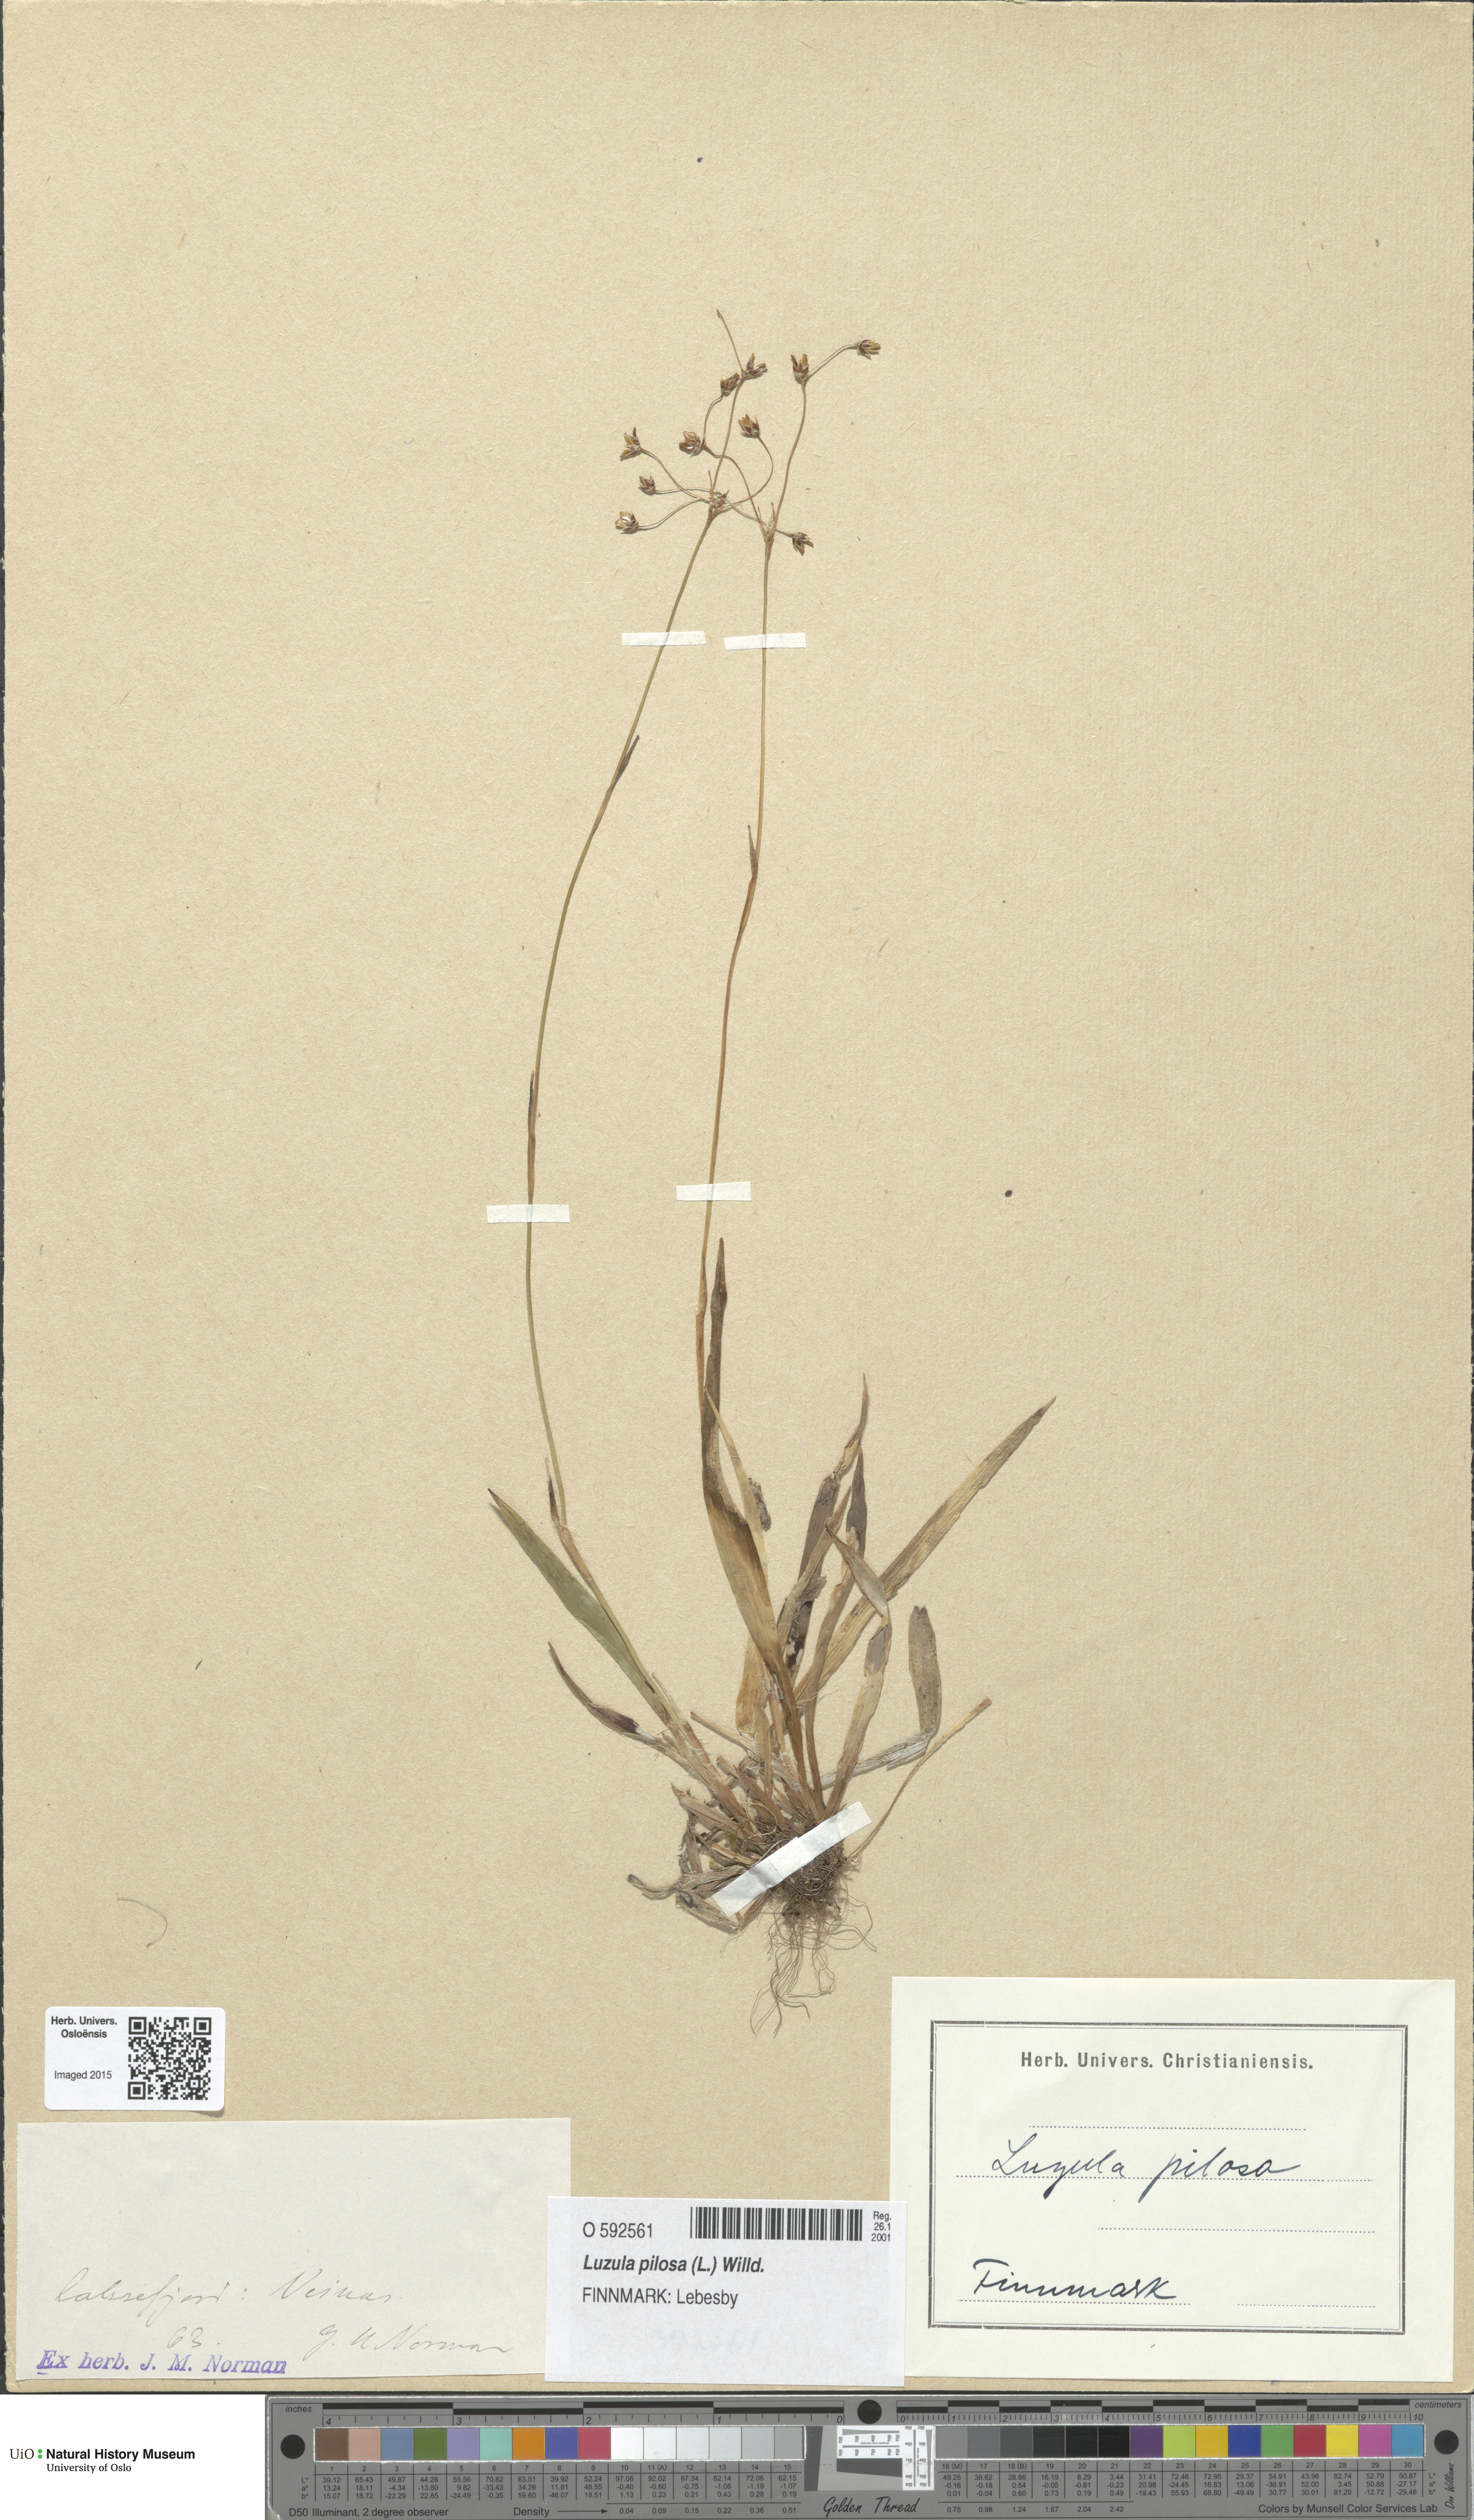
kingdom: Plantae
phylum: Tracheophyta
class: Liliopsida
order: Poales
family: Juncaceae
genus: Luzula
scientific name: Luzula pilosa
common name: Hairy wood-rush
